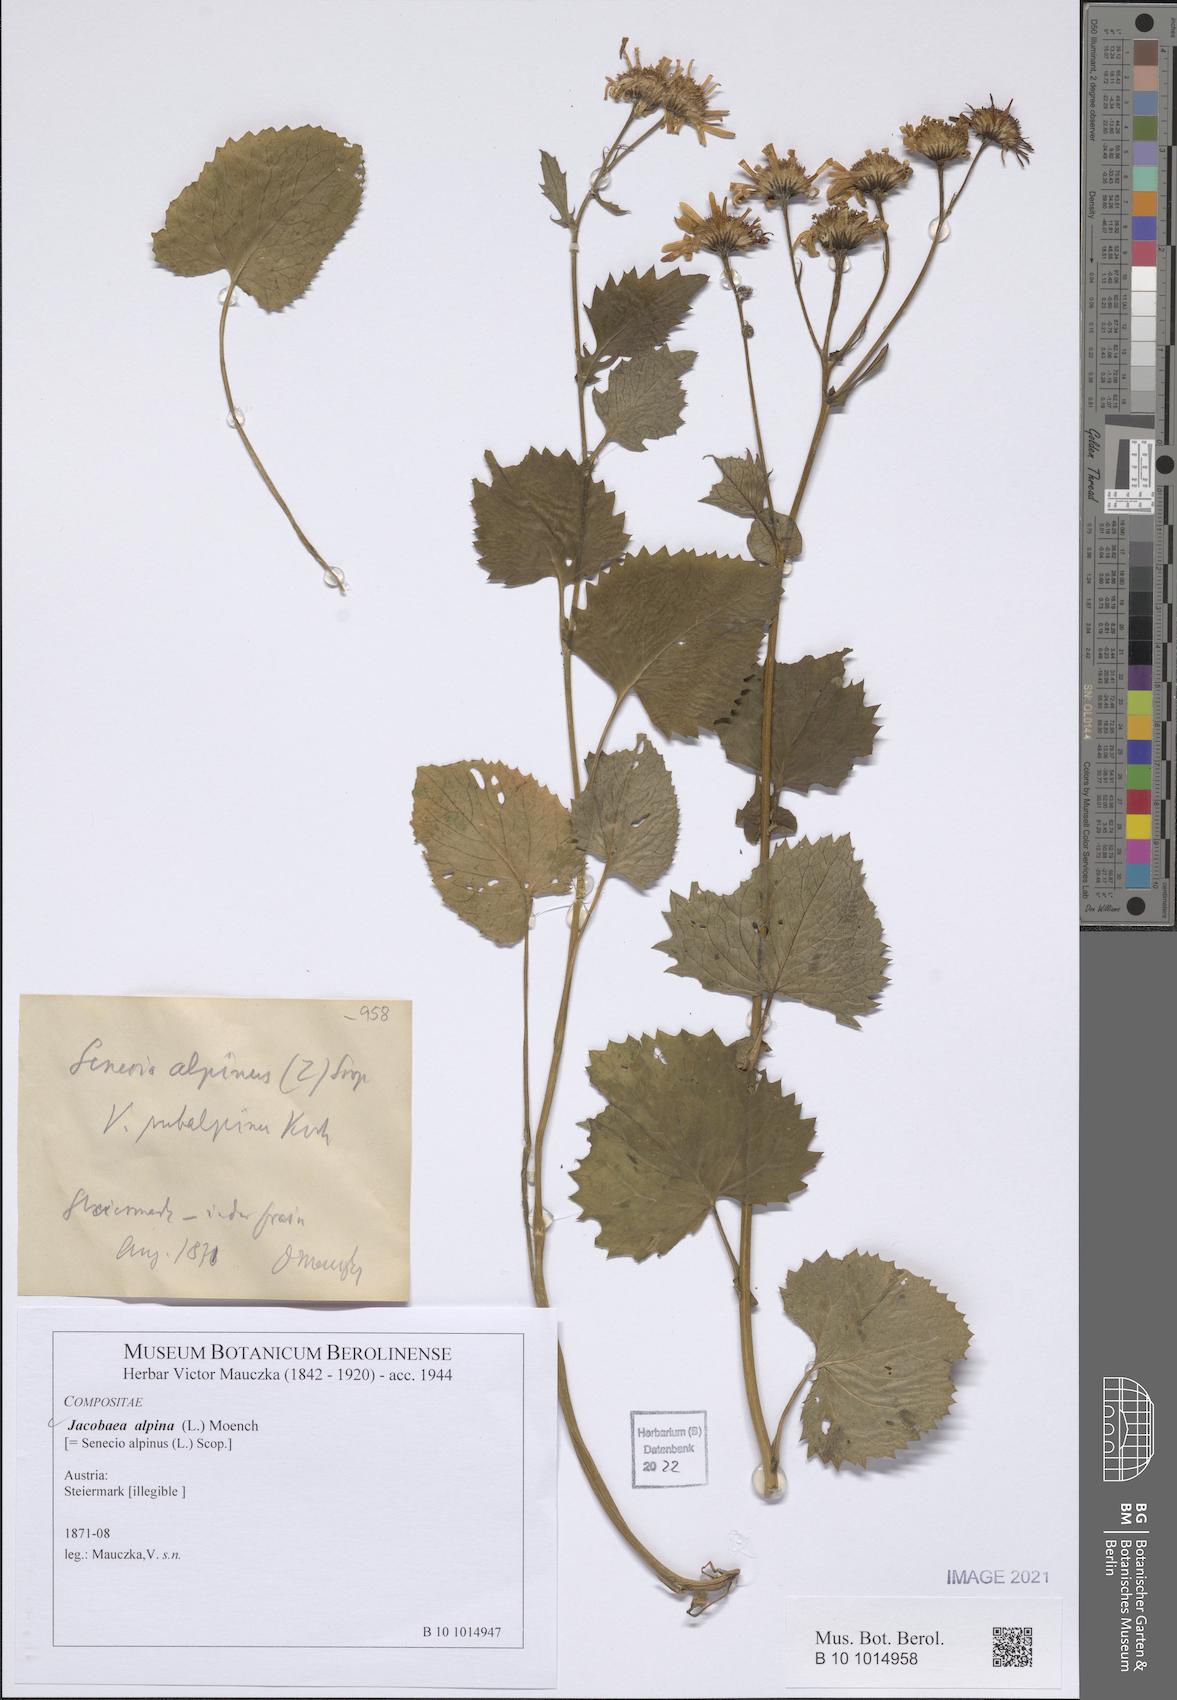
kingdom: Plantae
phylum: Tracheophyta
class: Magnoliopsida
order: Asterales
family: Asteraceae
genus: Jacobaea
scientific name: Jacobaea alpina
